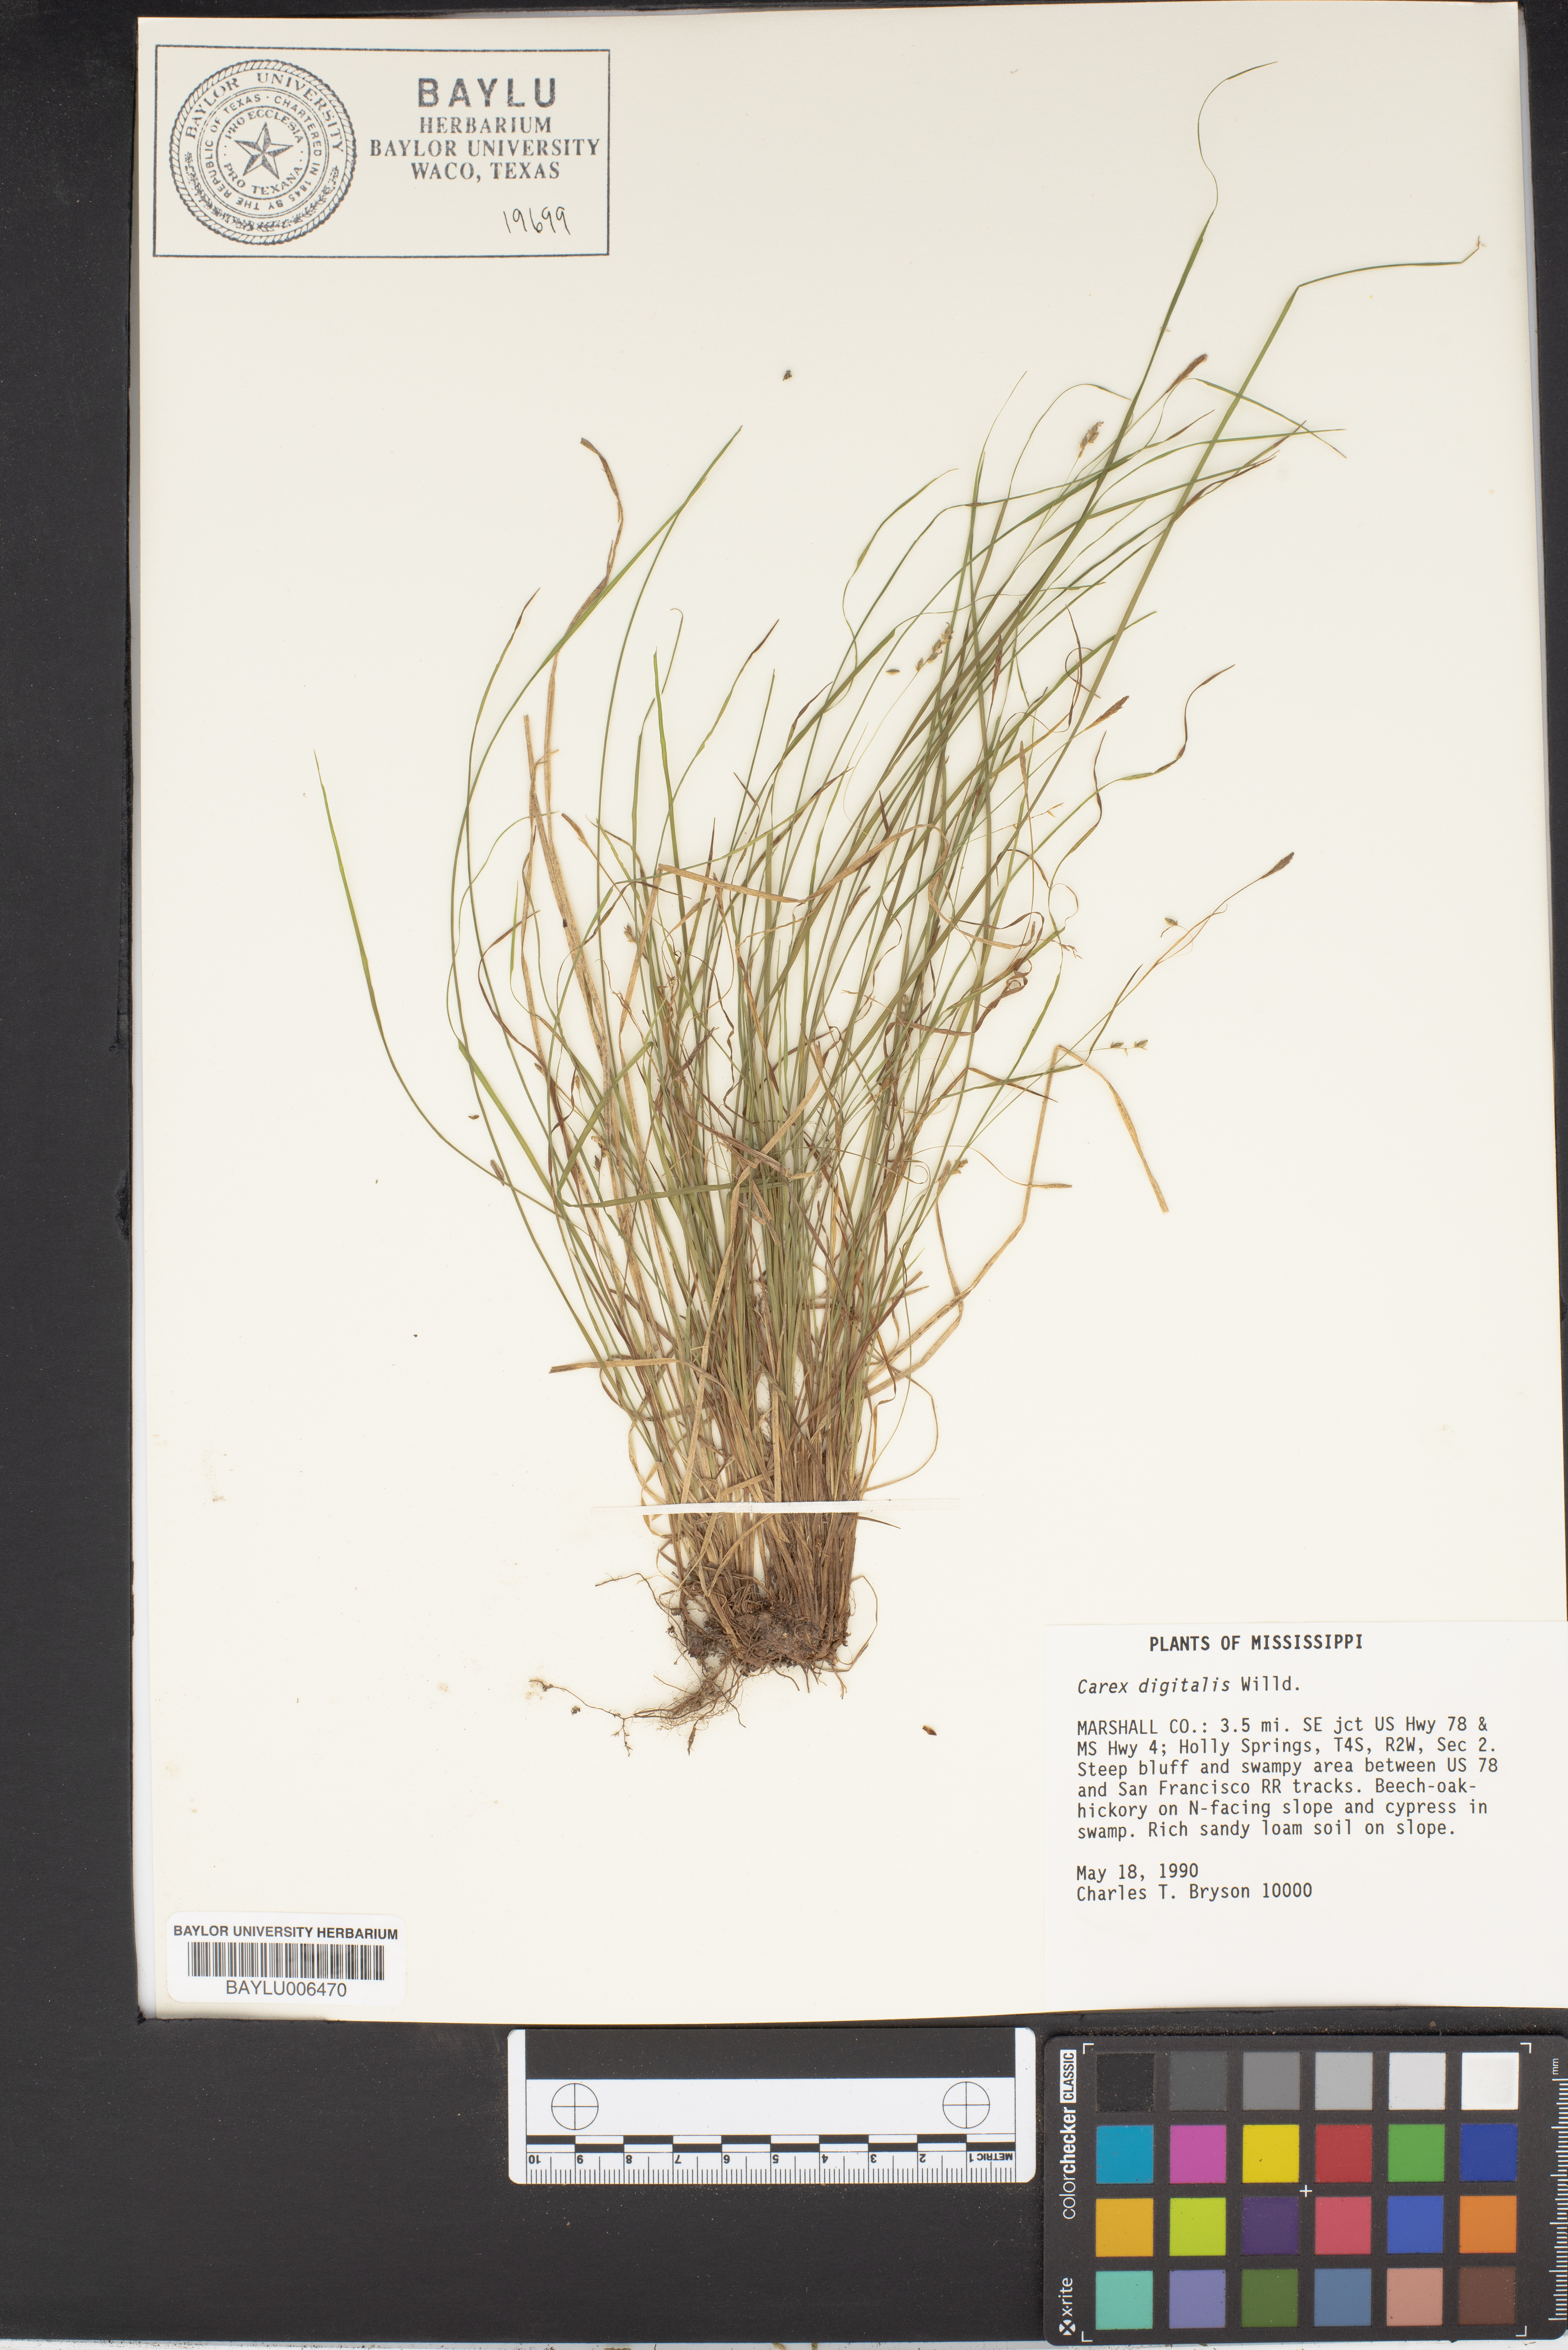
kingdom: Plantae
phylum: Tracheophyta
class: Liliopsida
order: Poales
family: Cyperaceae
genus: Carex
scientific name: Carex digitalis
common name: Slender wood sedge
